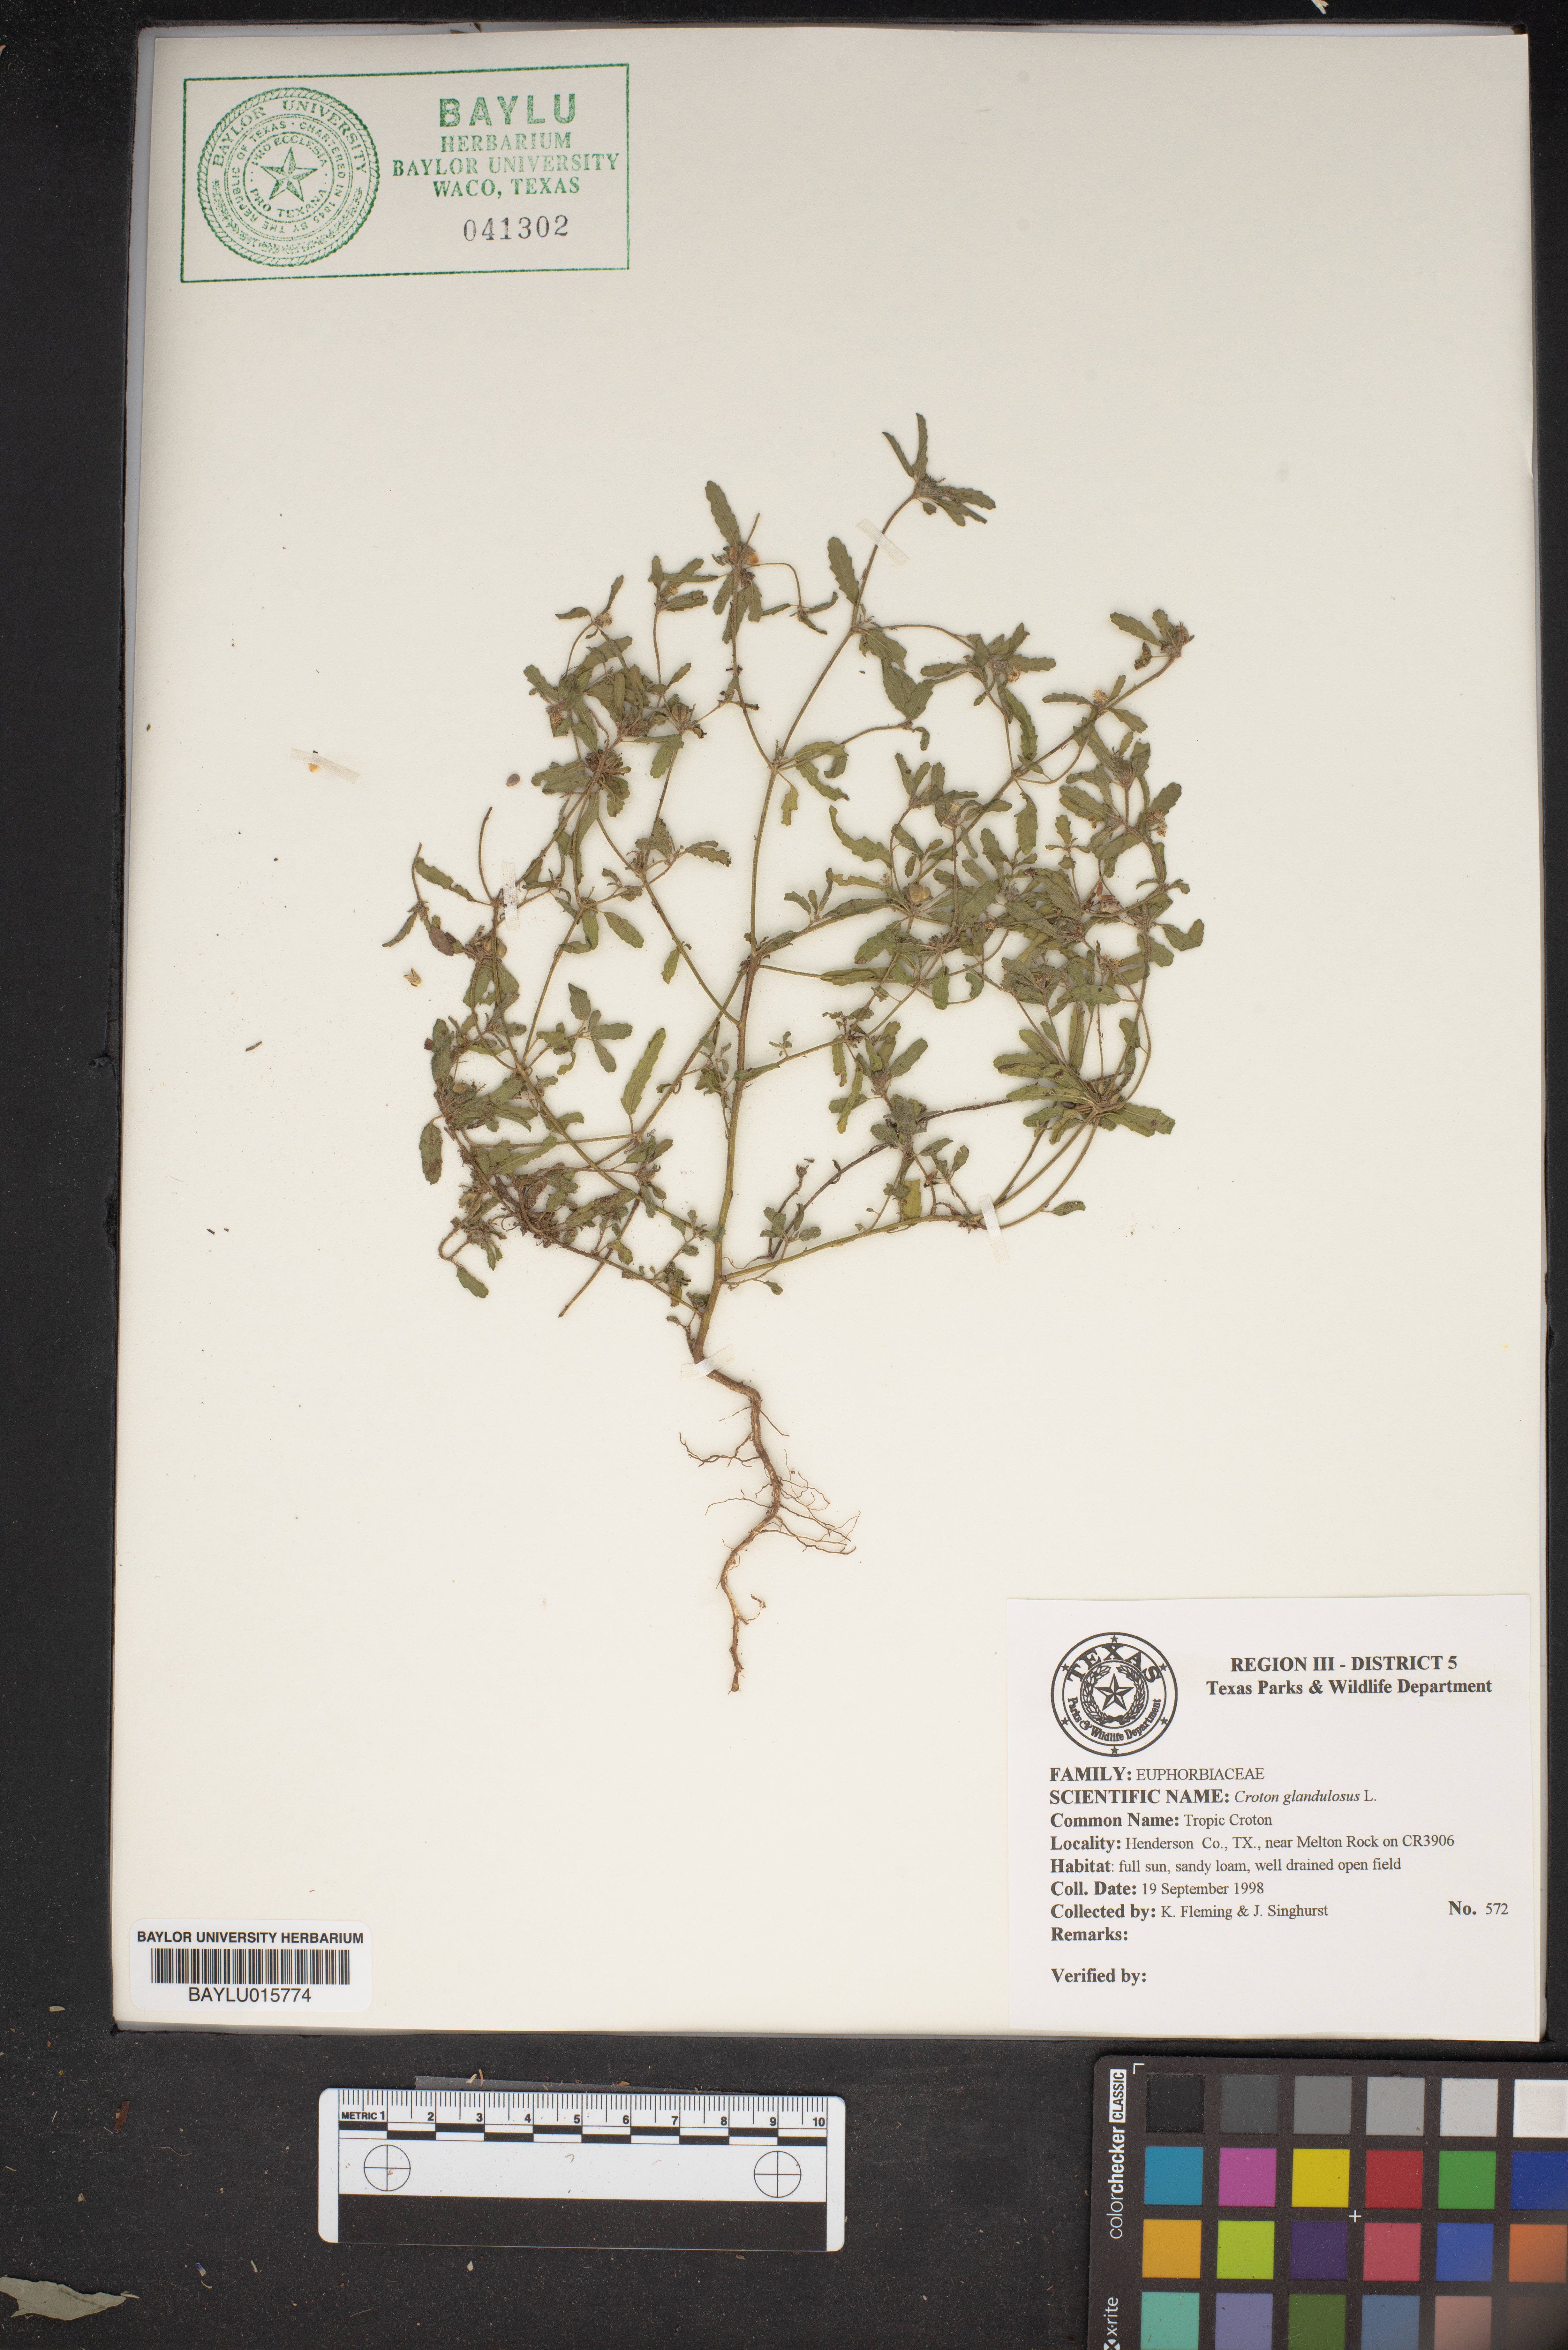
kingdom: Plantae
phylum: Tracheophyta
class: Magnoliopsida
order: Malpighiales
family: Euphorbiaceae
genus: Croton
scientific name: Croton glandulosus
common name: Tropic croton
